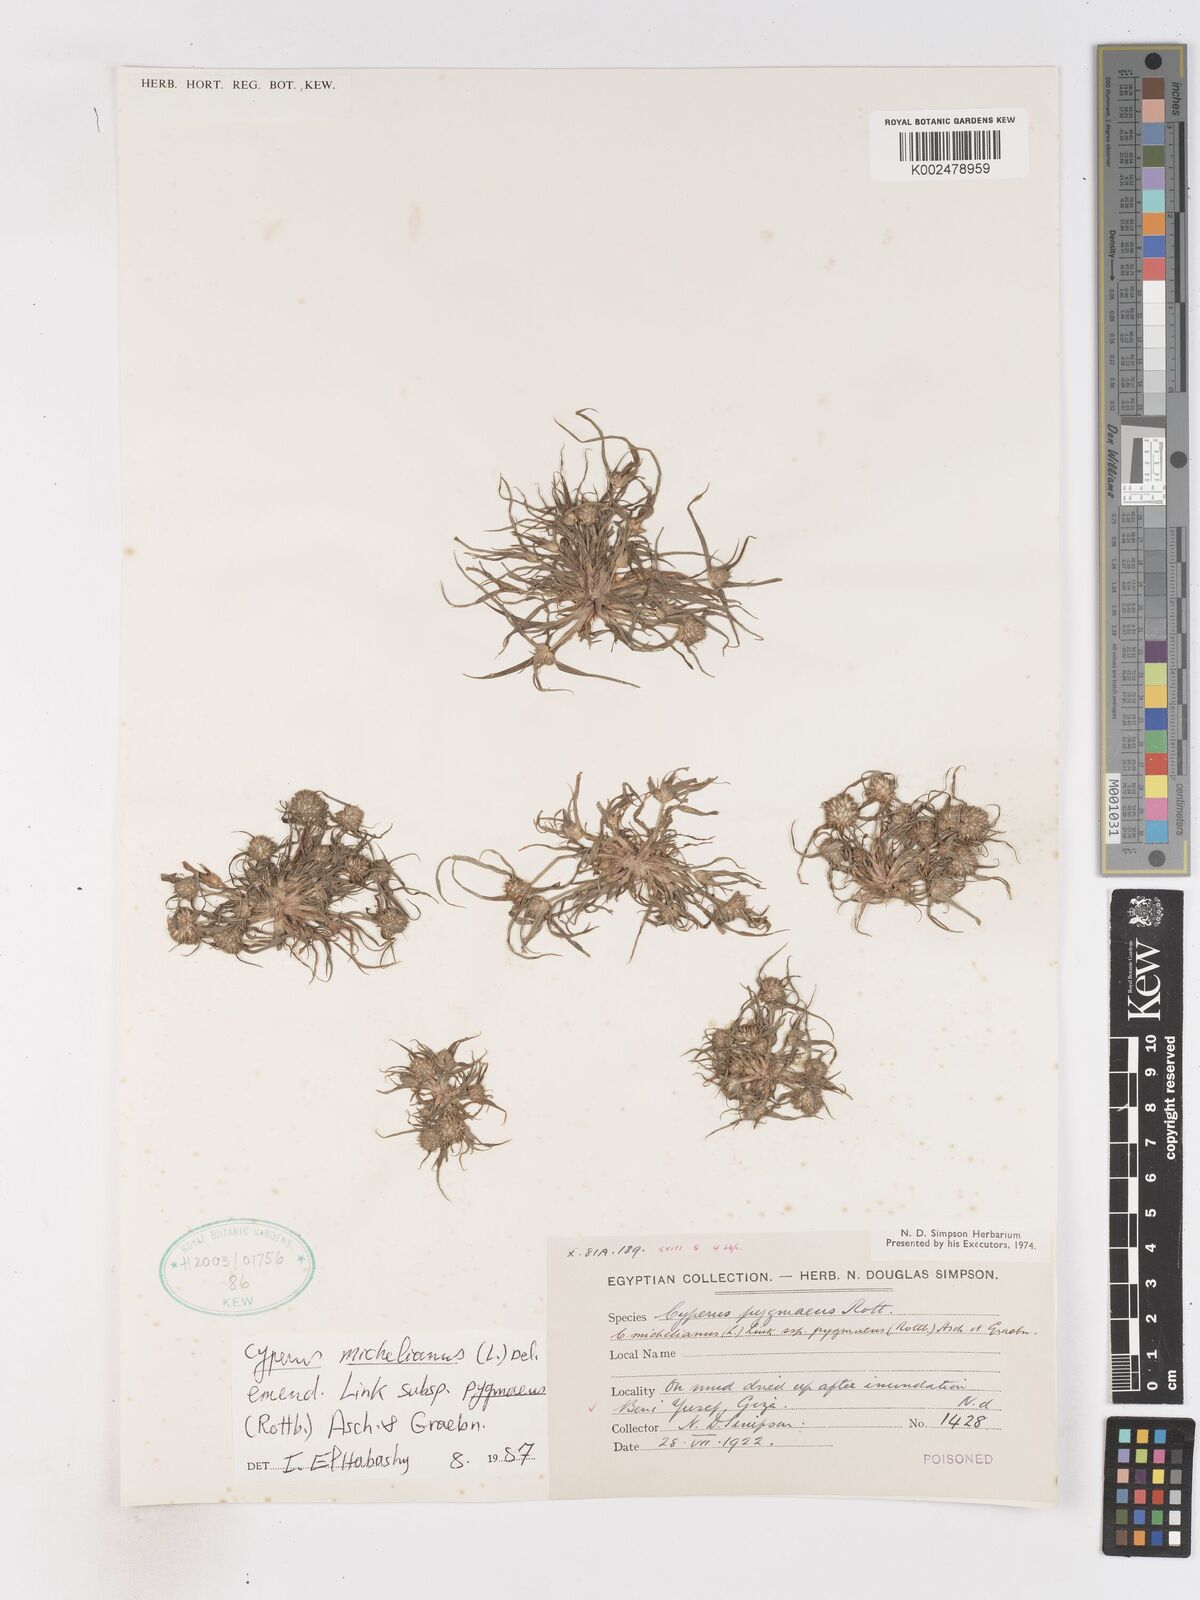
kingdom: Plantae
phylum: Tracheophyta
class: Liliopsida
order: Poales
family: Cyperaceae
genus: Cyperus
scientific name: Cyperus michelianus
